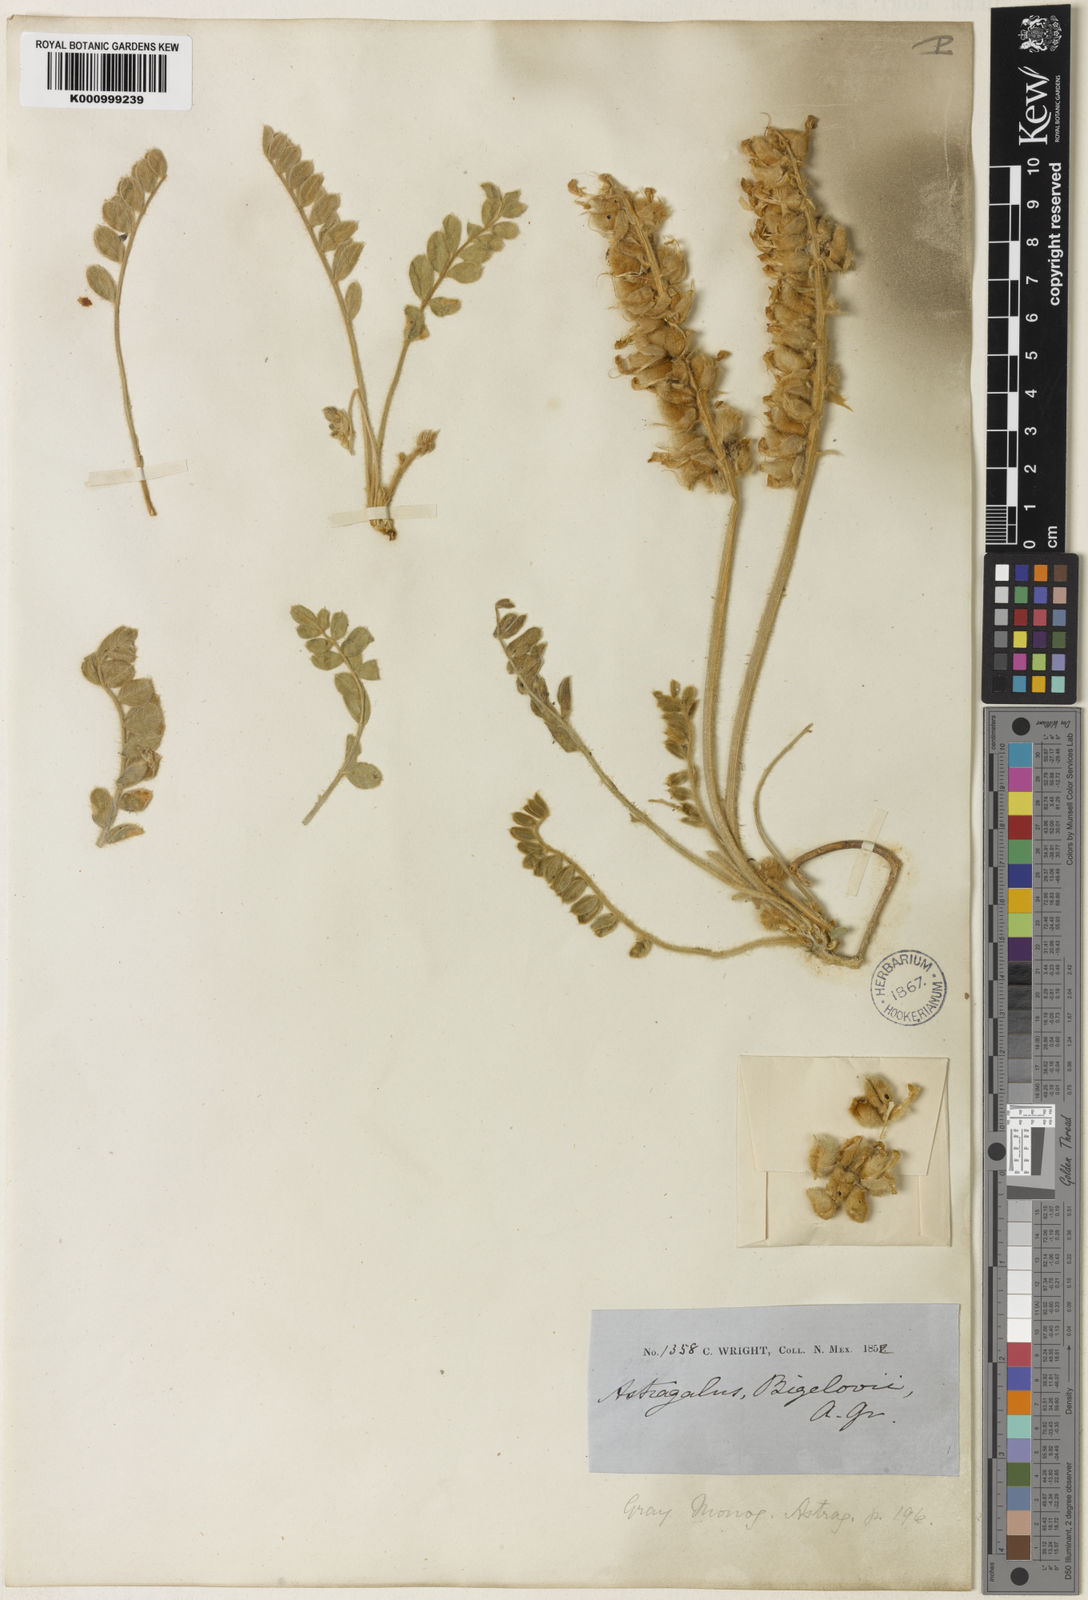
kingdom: Plantae
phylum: Tracheophyta
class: Magnoliopsida
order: Fabales
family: Fabaceae
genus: Astragalus
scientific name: Astragalus
